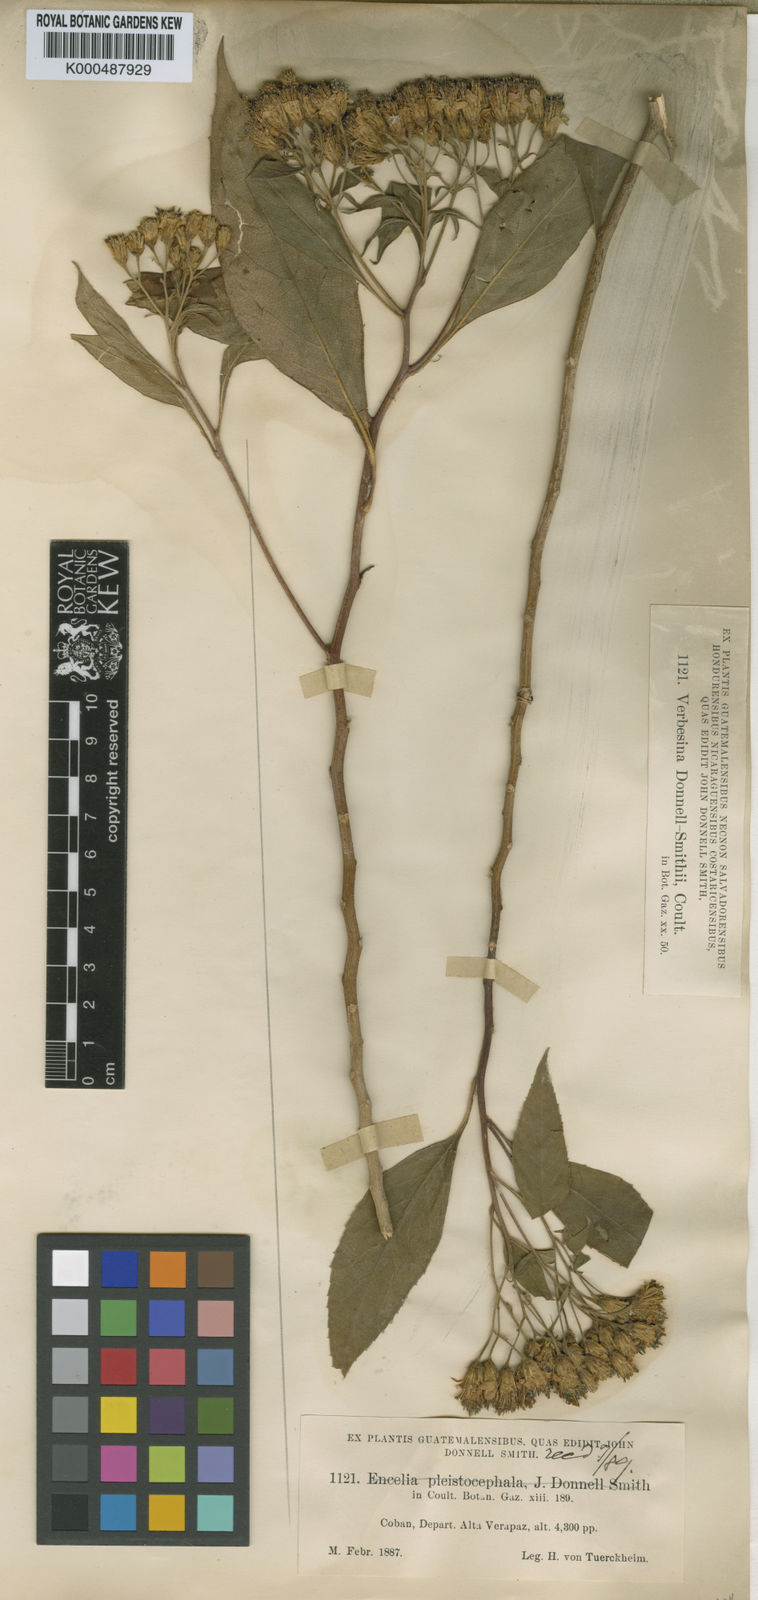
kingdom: Plantae
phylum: Tracheophyta
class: Magnoliopsida
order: Asterales
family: Asteraceae
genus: Verbesina
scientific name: Verbesina
